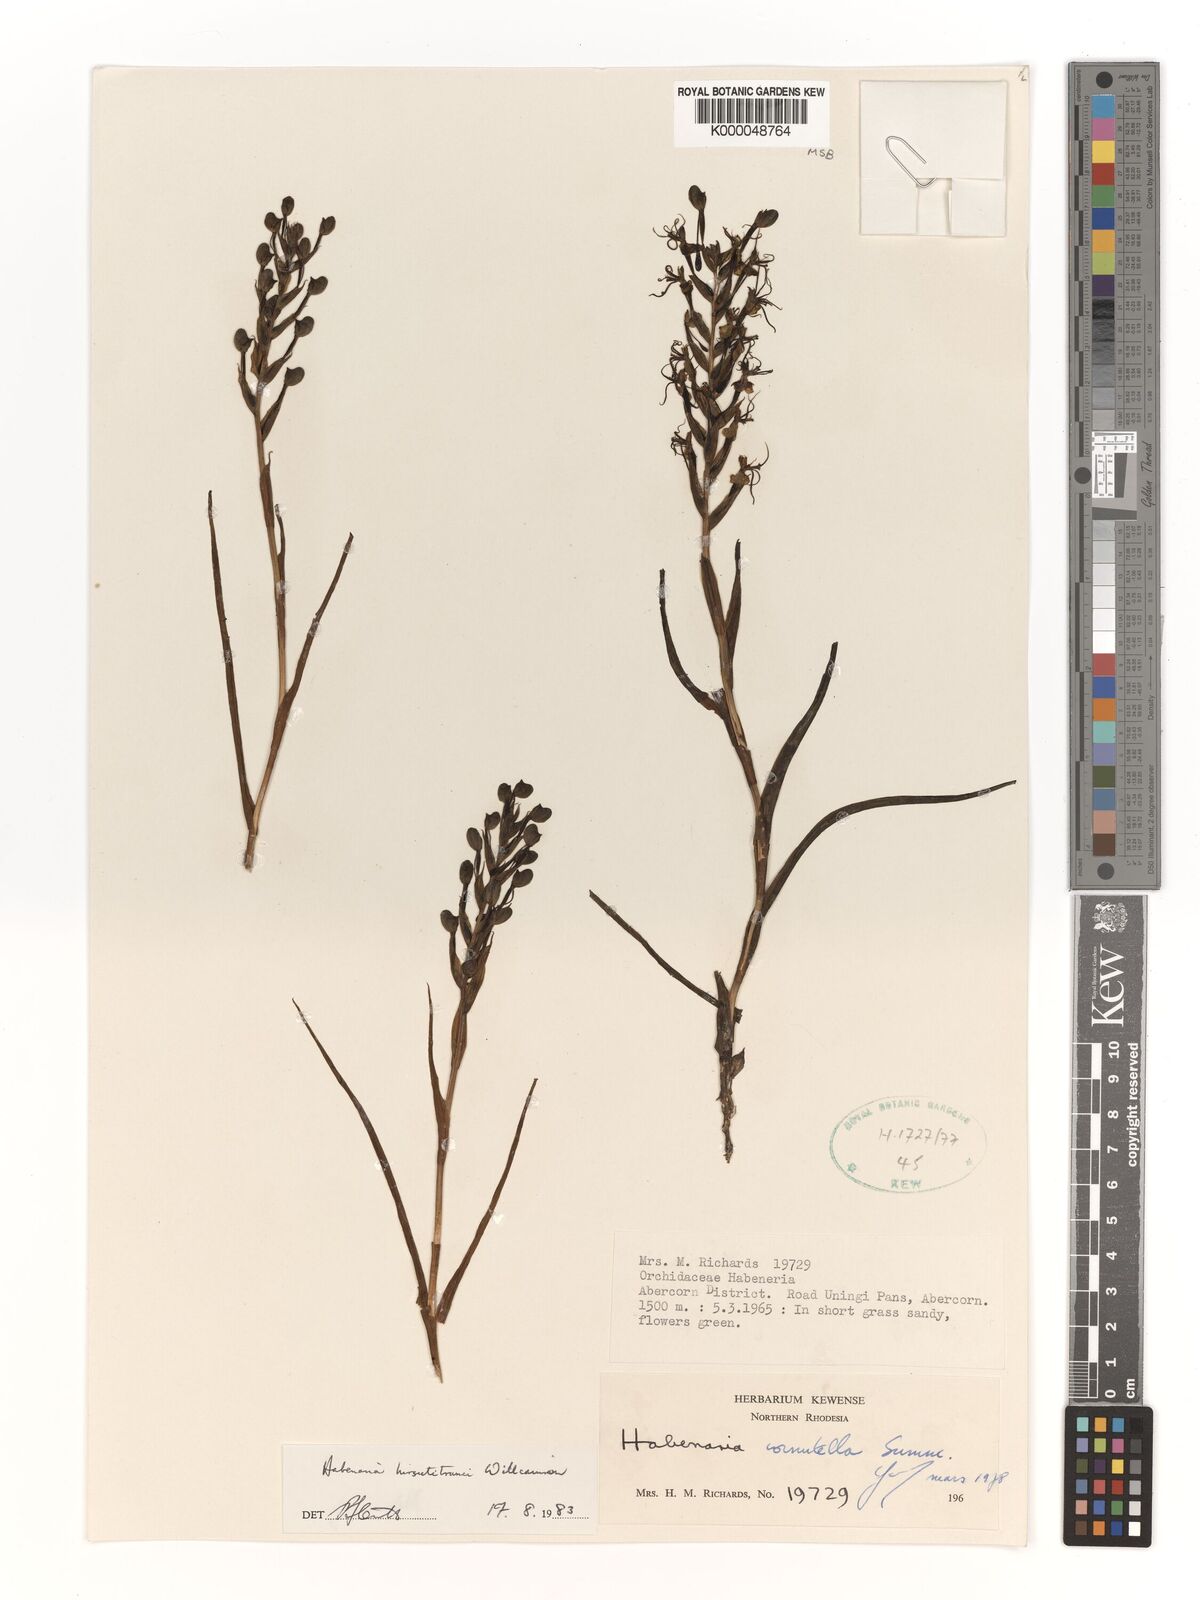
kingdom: Plantae
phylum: Tracheophyta
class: Liliopsida
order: Asparagales
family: Orchidaceae
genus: Habenaria
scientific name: Habenaria
